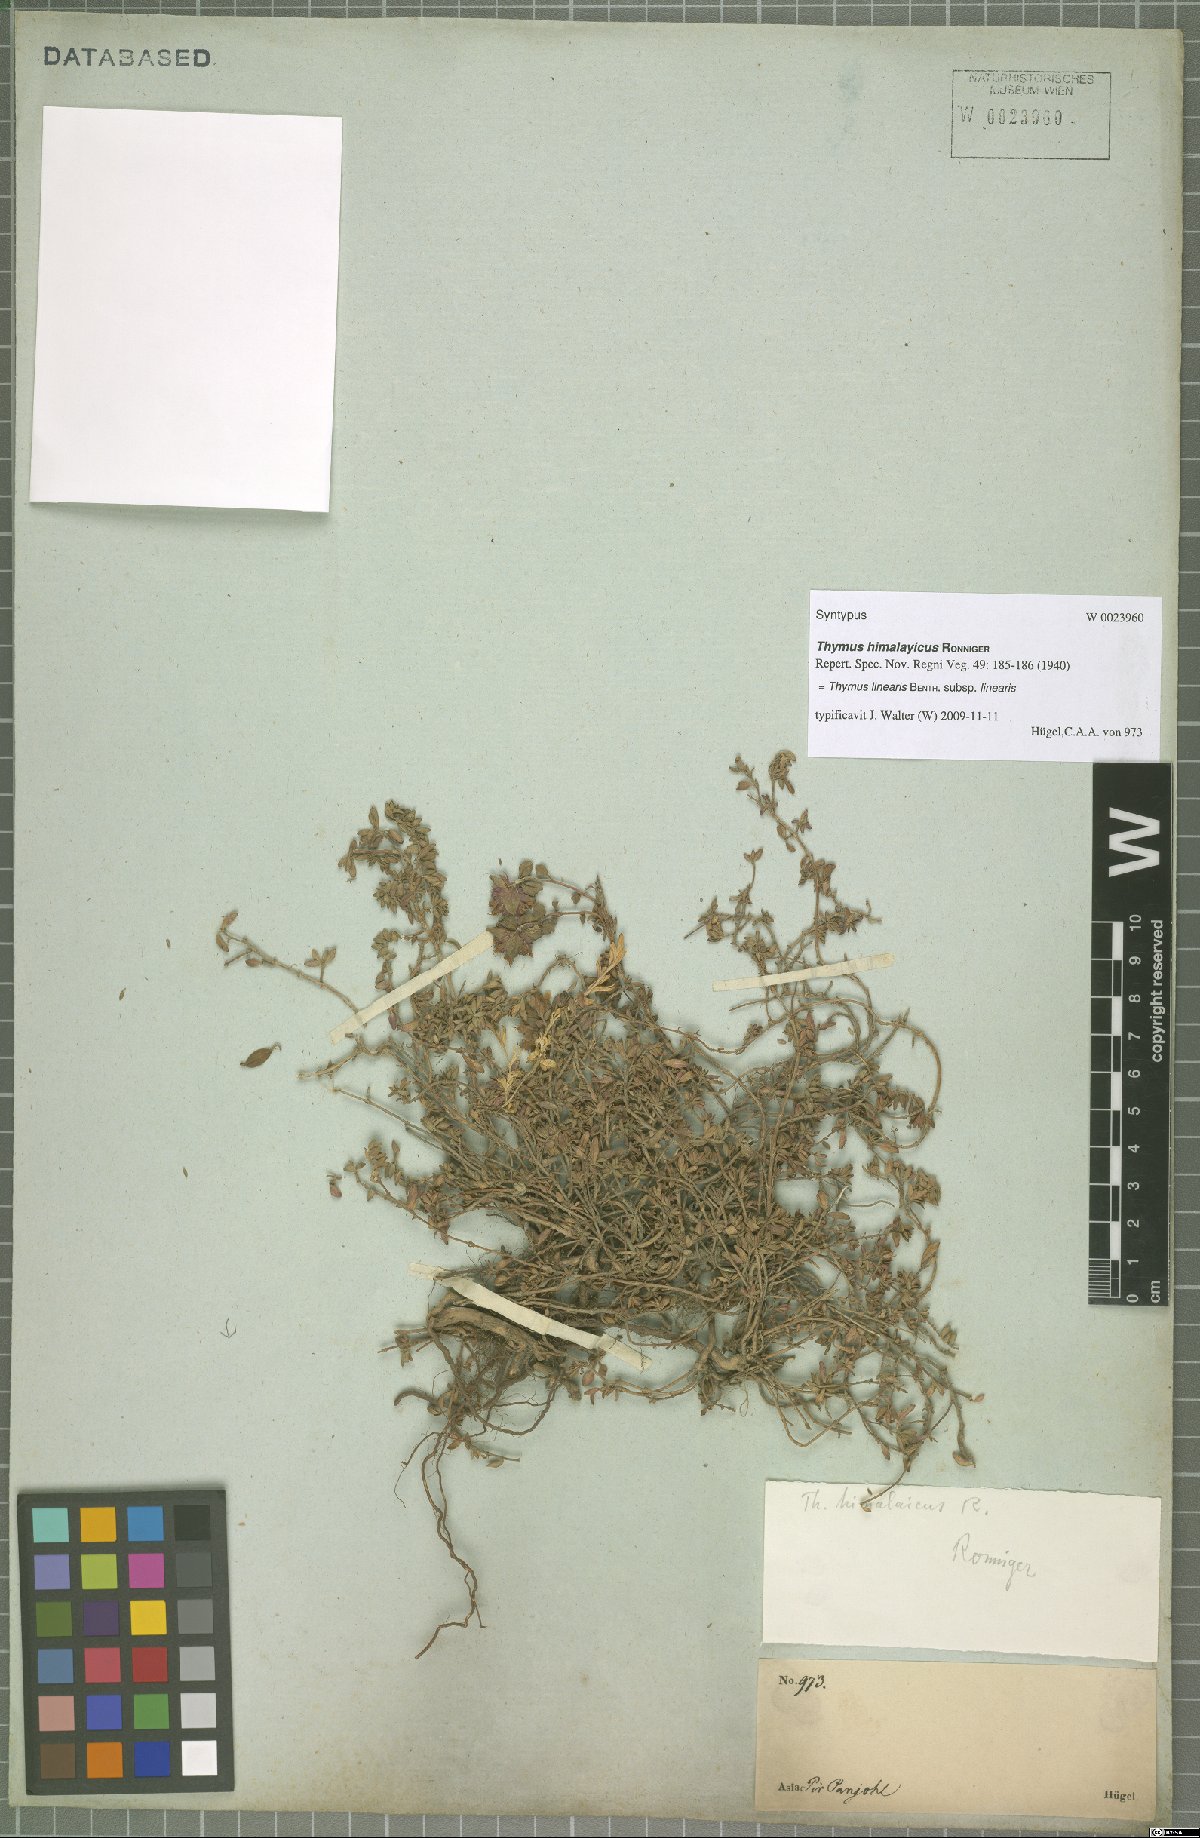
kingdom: Plantae
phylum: Tracheophyta
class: Magnoliopsida
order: Lamiales
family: Lamiaceae
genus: Thymus
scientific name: Thymus linearis
